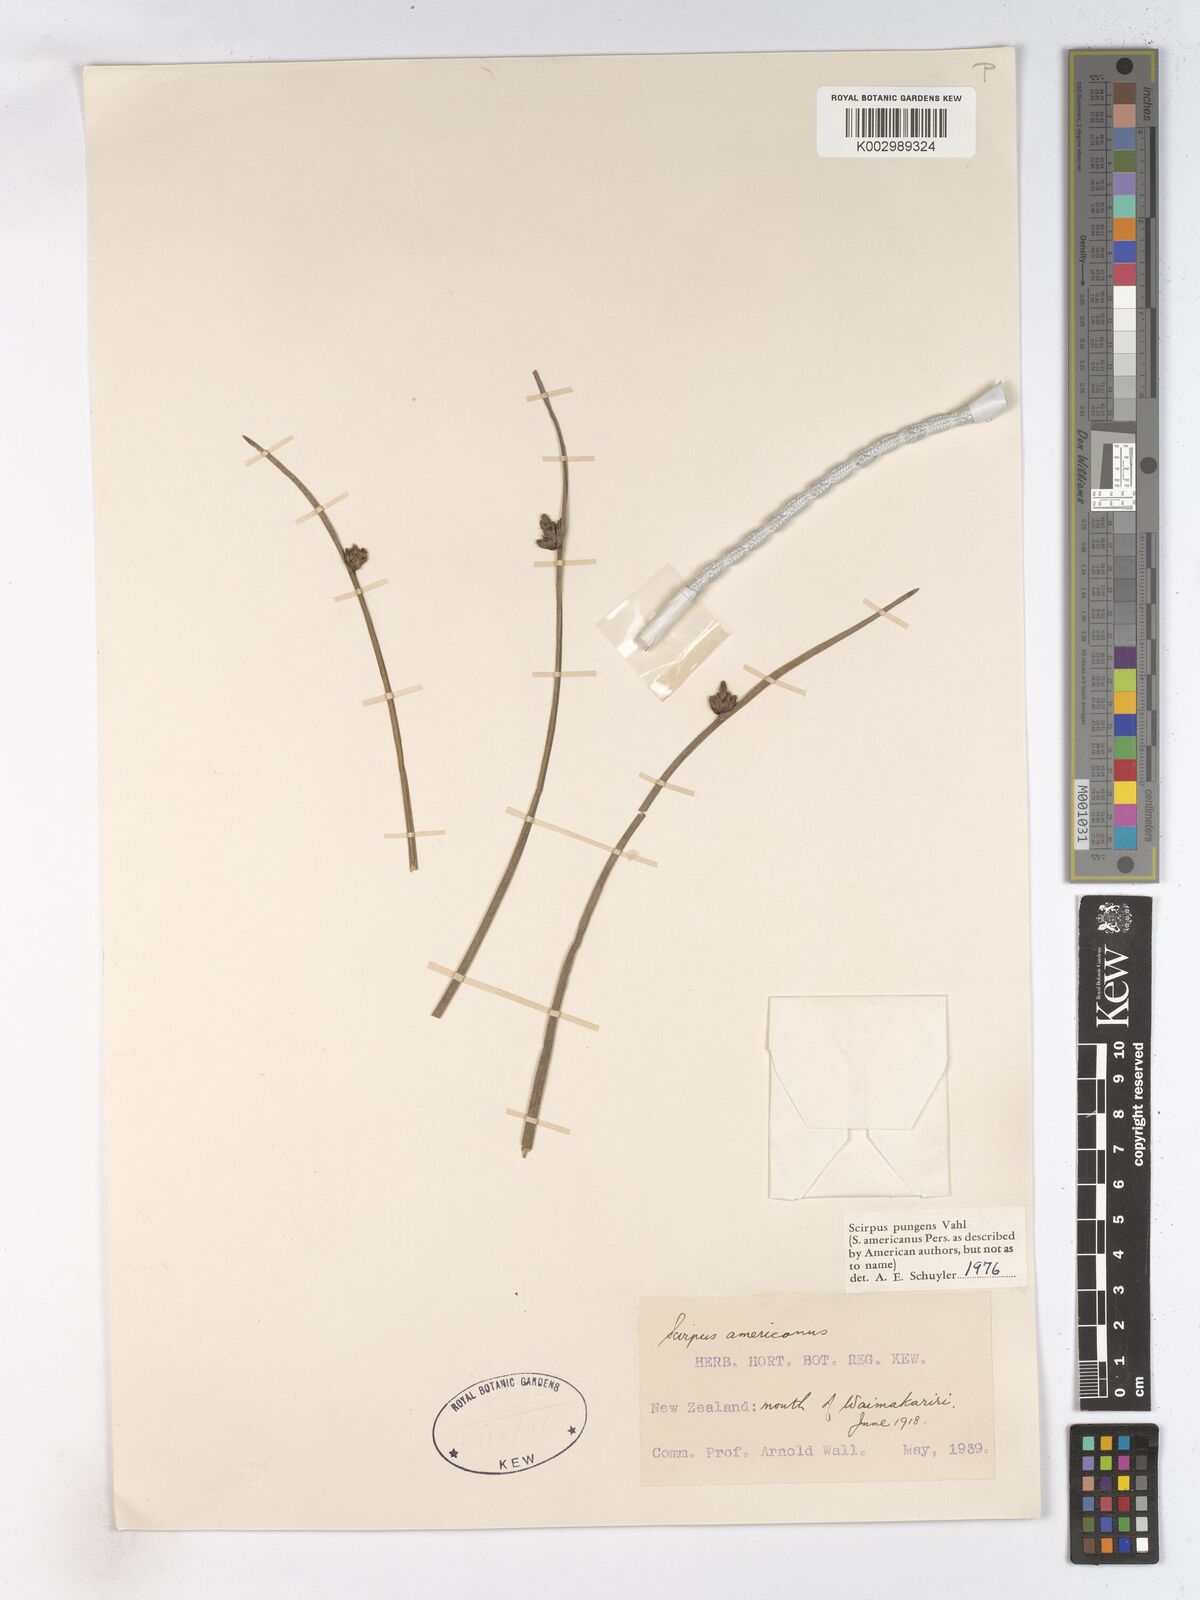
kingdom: Plantae
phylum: Tracheophyta
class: Liliopsida
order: Poales
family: Cyperaceae
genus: Schoenoplectus
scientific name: Schoenoplectus pungens
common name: Sharp club-rush
